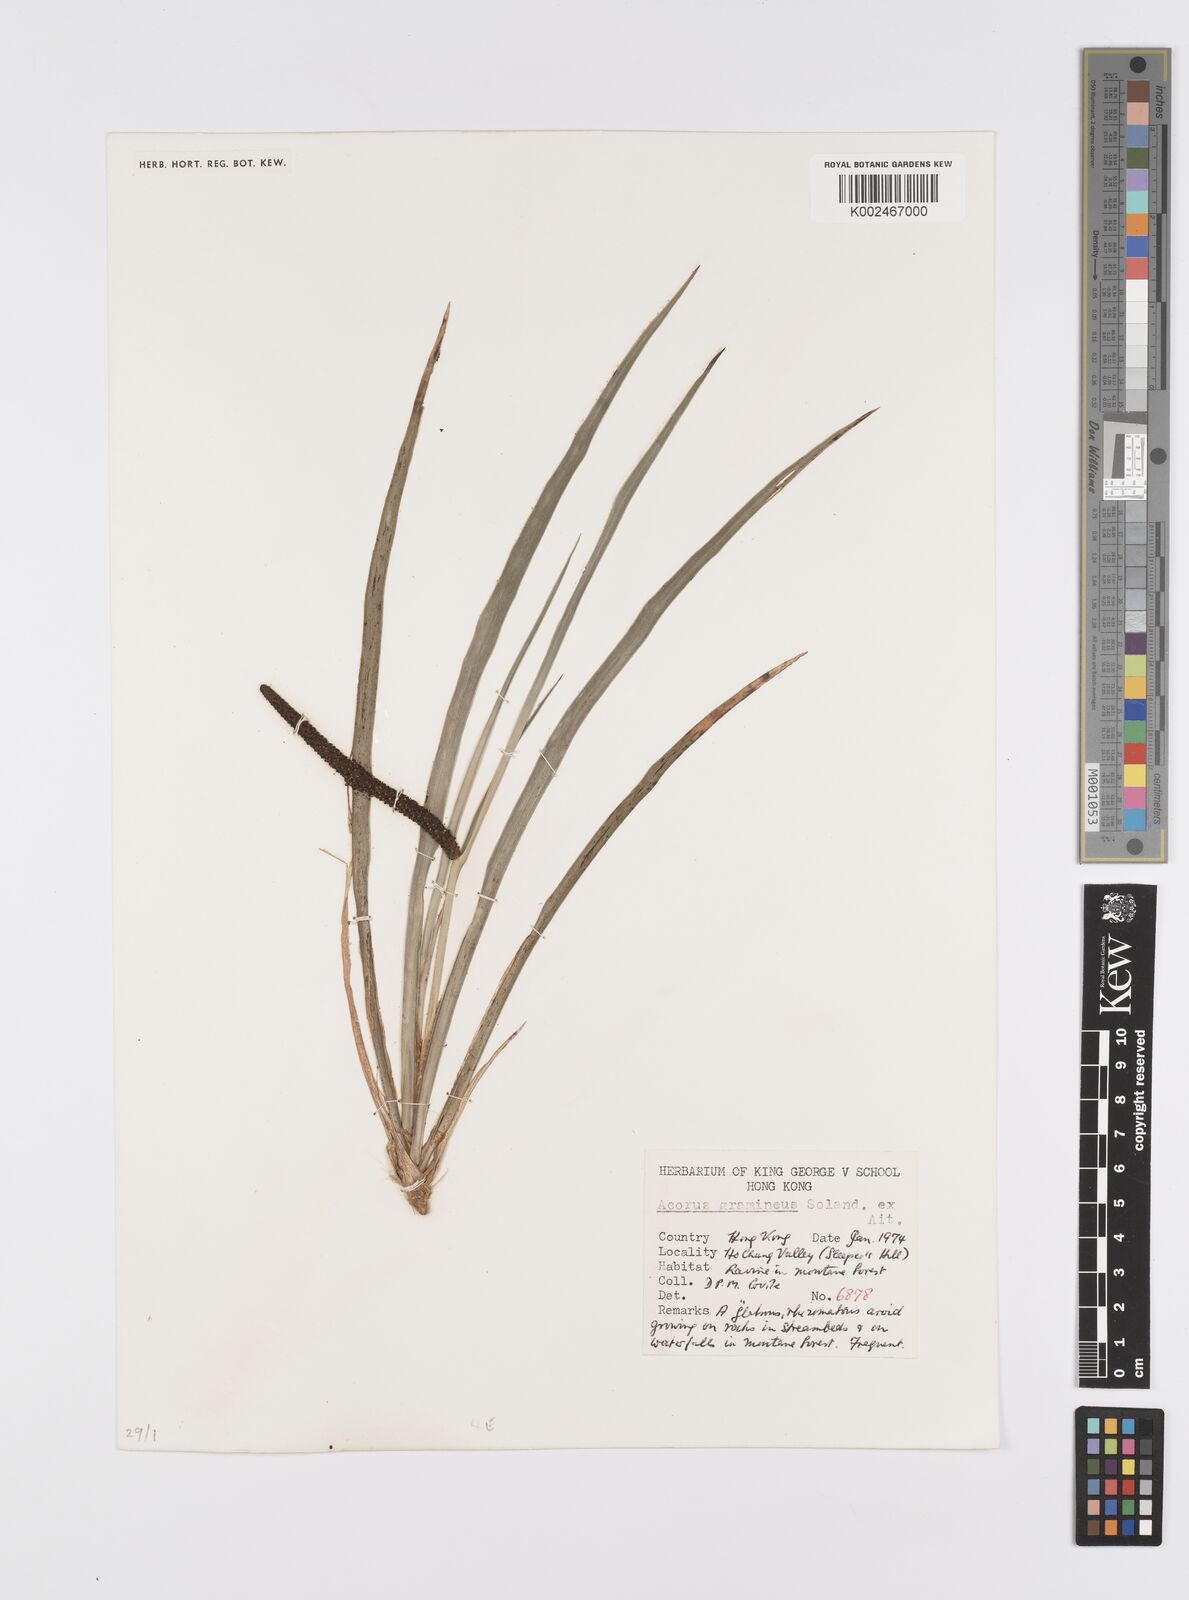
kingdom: Plantae
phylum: Tracheophyta
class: Liliopsida
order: Acorales
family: Acoraceae
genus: Acorus
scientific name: Acorus gramineus
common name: Slender sweet-flag
